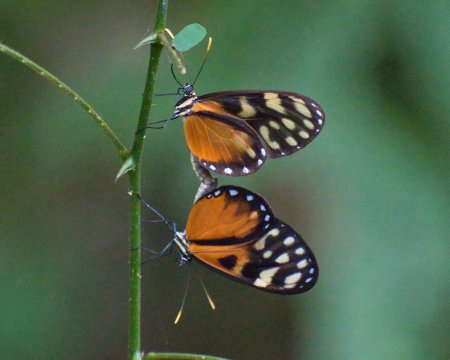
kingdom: Animalia
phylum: Arthropoda
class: Insecta
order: Lepidoptera
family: Nymphalidae
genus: Napeogenes
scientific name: Napeogenes tolosa
